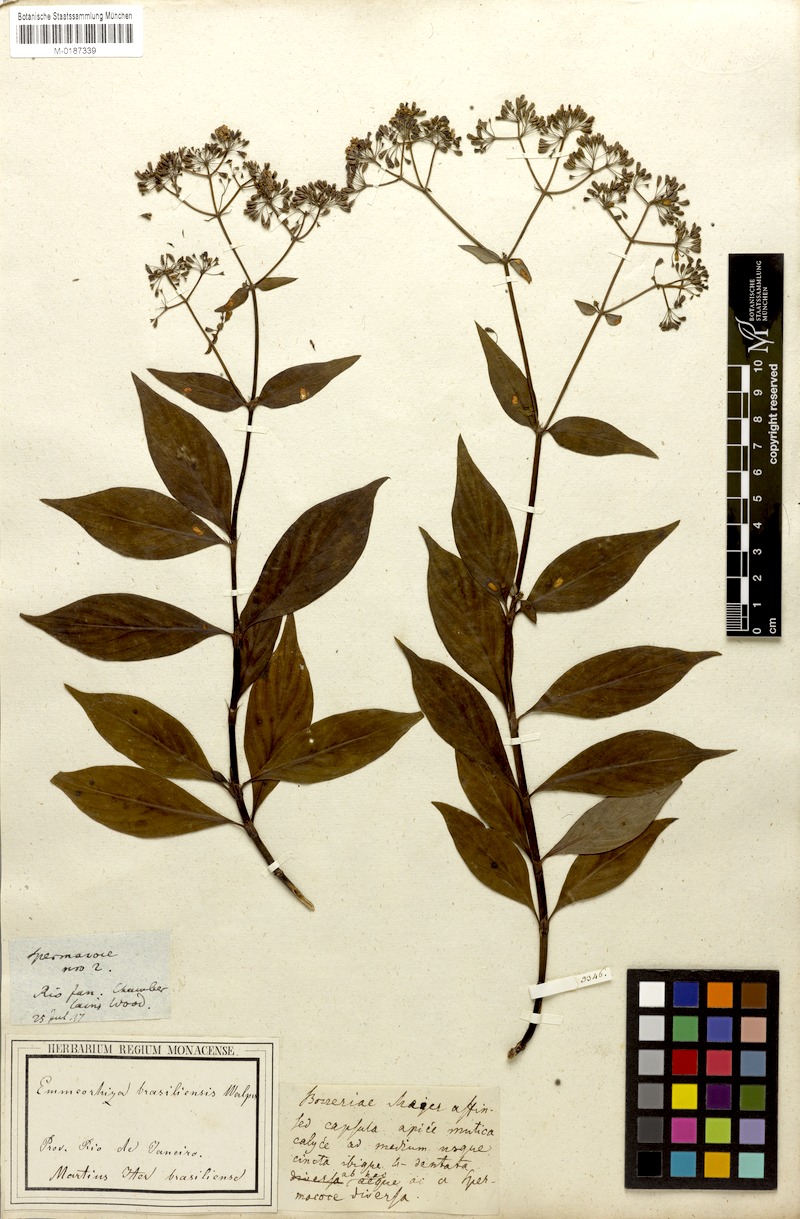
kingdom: Plantae
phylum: Tracheophyta
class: Magnoliopsida
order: Gentianales
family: Rubiaceae
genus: Emmeorhiza
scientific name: Emmeorhiza umbellata
